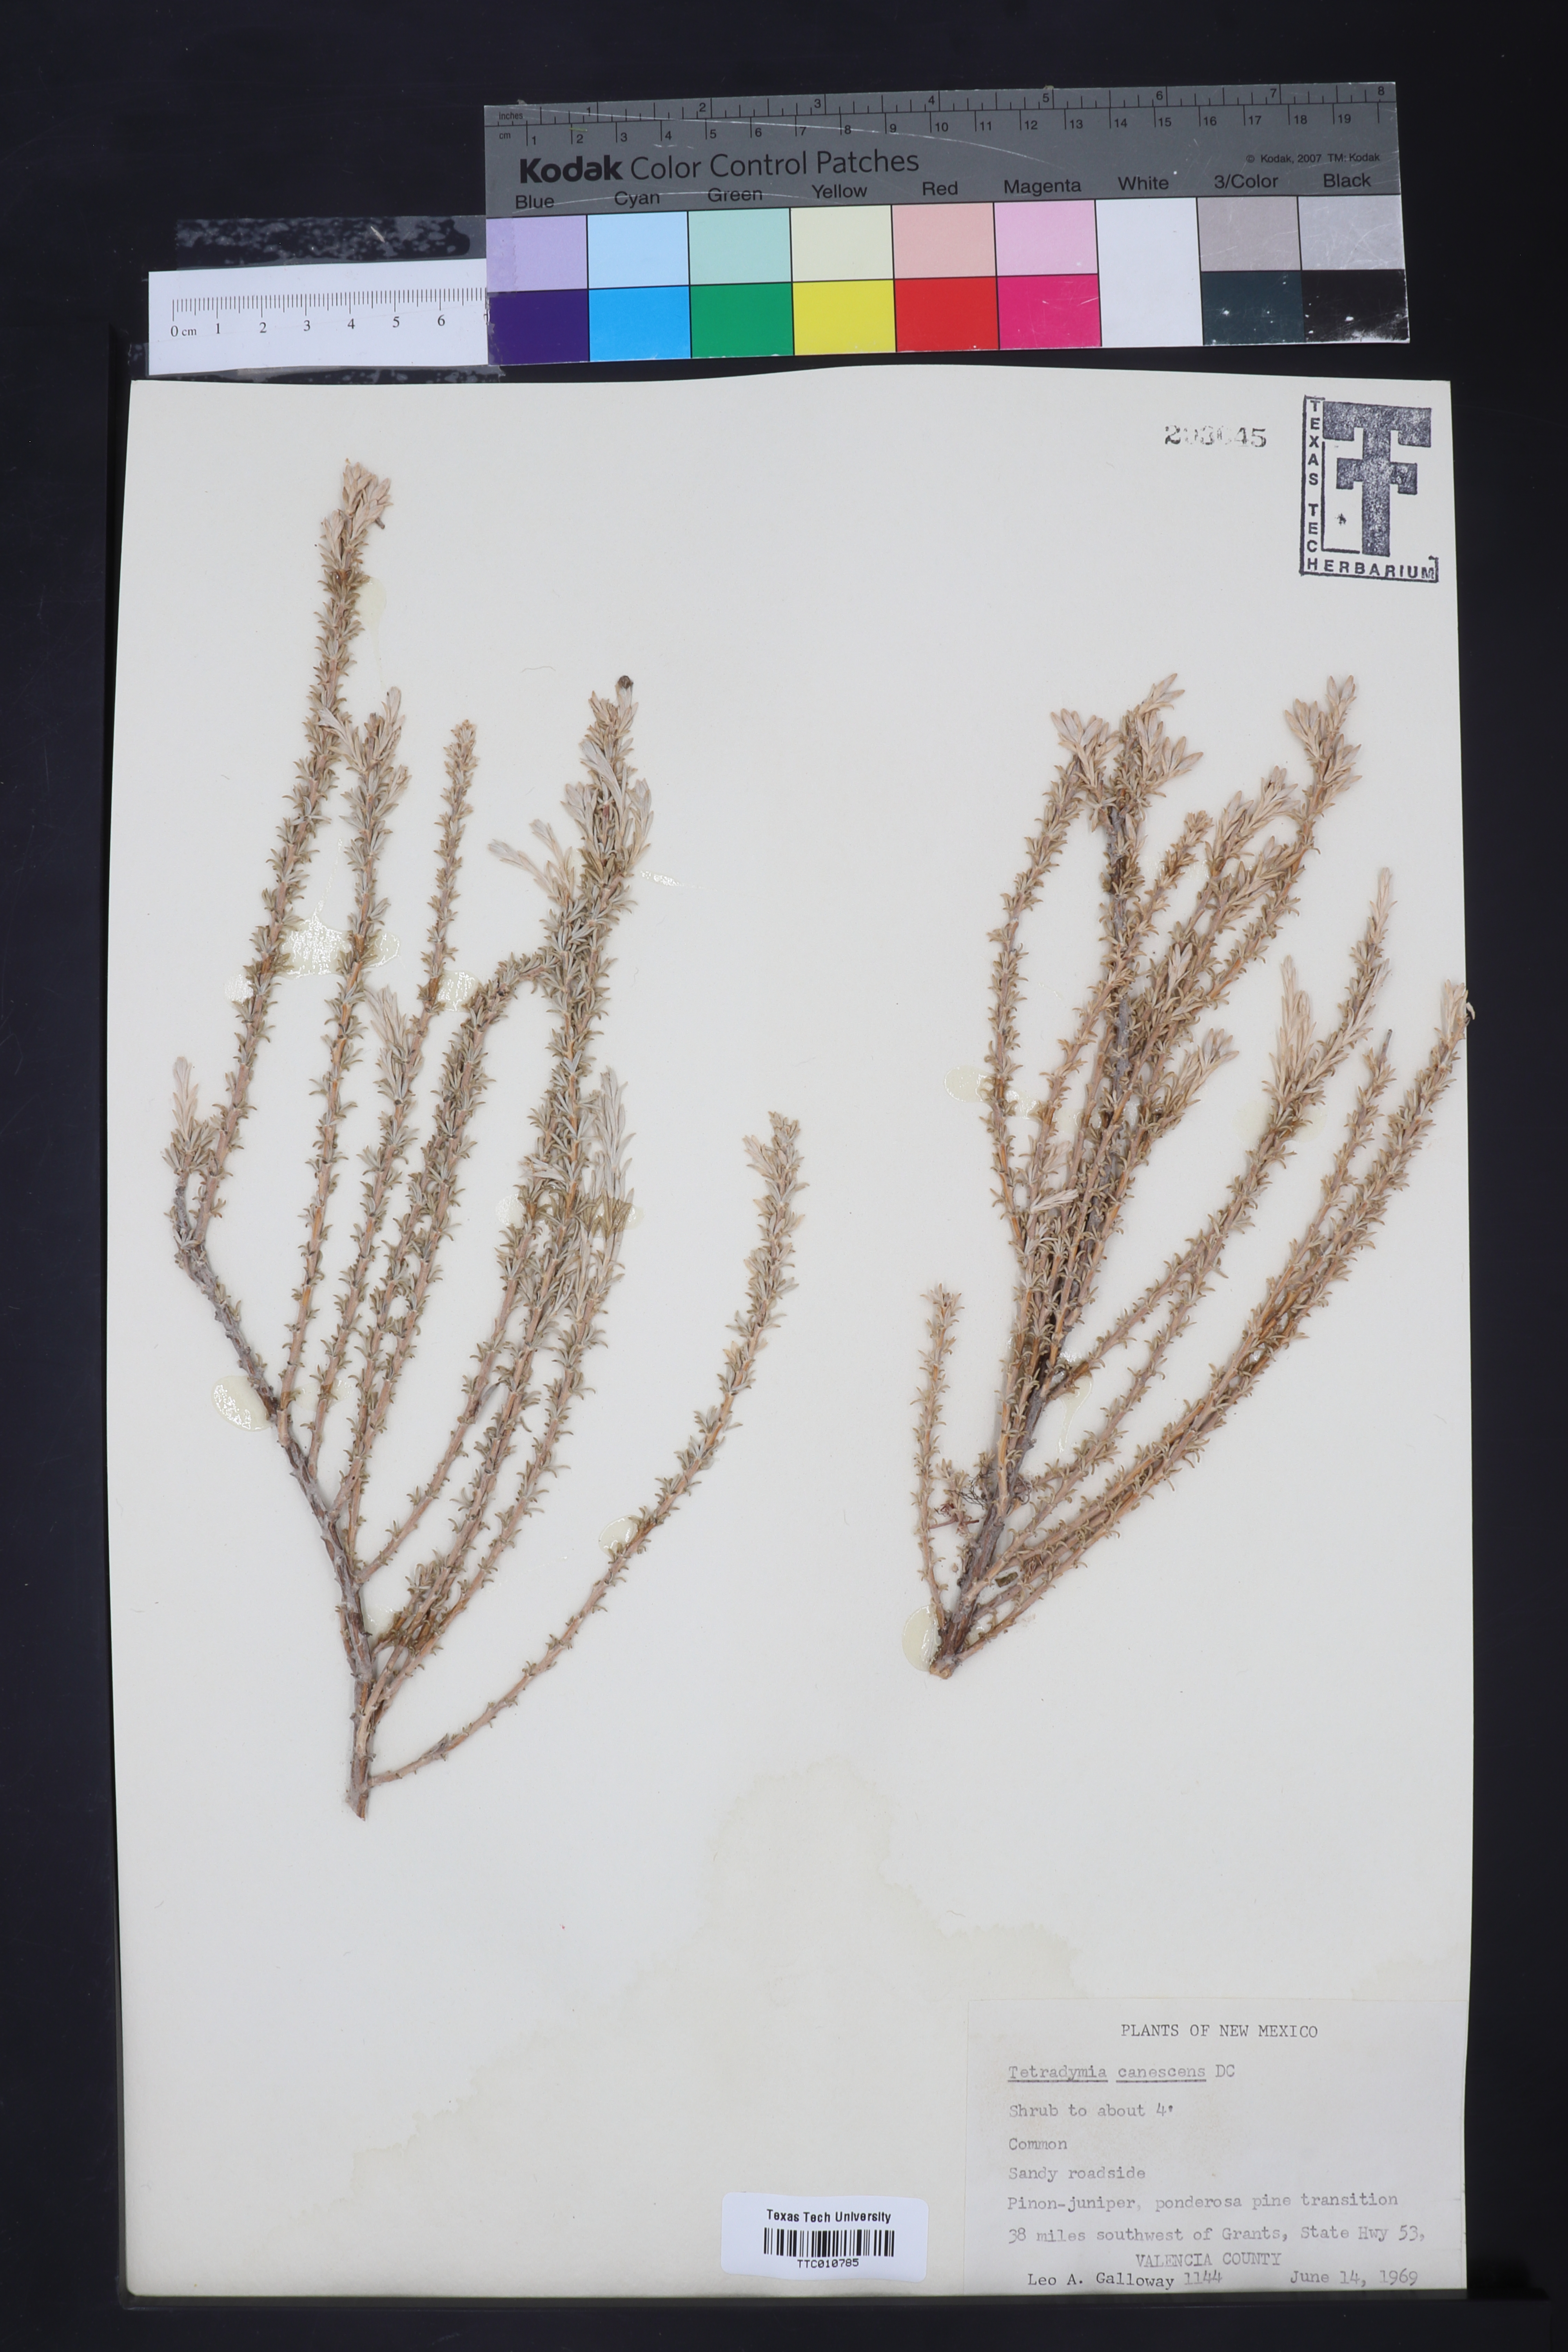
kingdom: Plantae
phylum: Tracheophyta
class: Magnoliopsida
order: Asterales
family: Asteraceae
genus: Tetradymia
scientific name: Tetradymia canescens
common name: Spineless horsebrush
